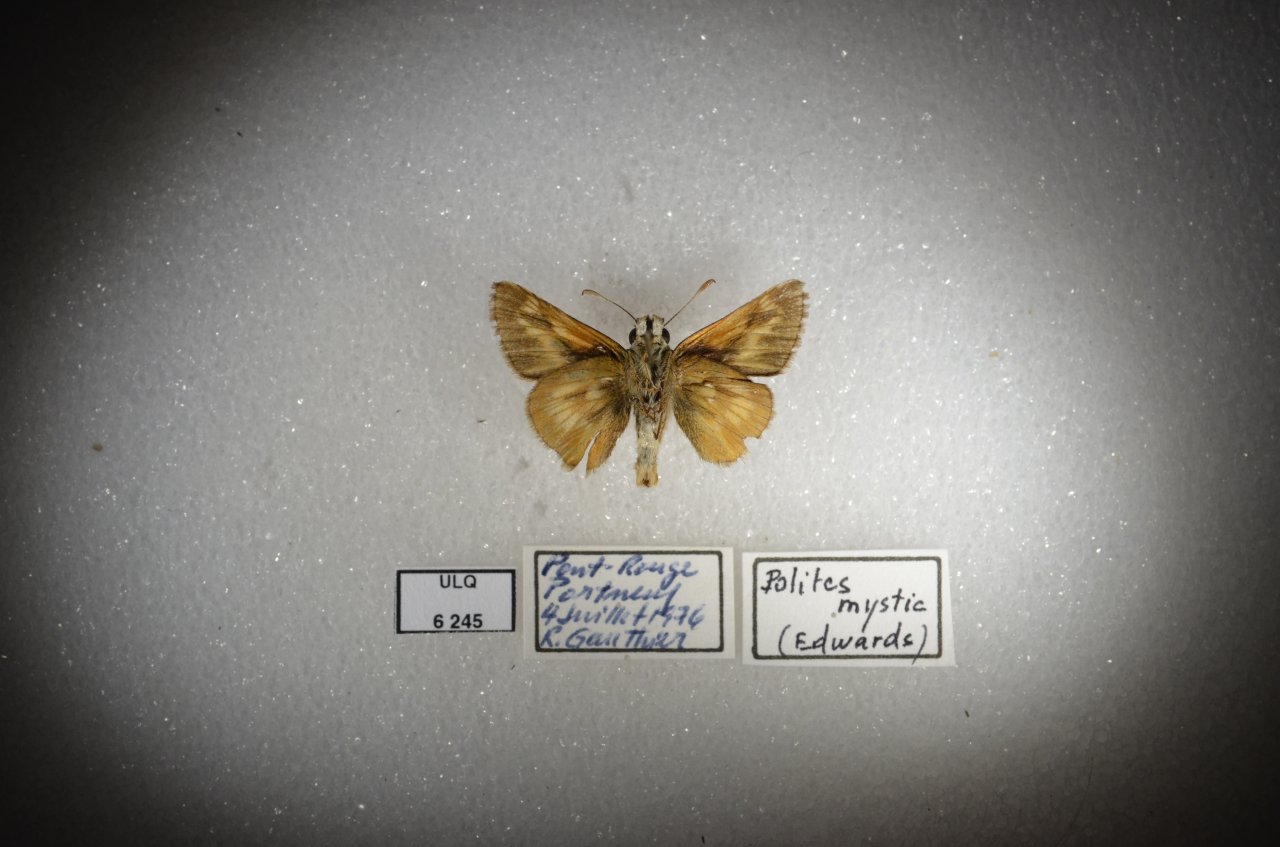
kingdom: Animalia
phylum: Arthropoda
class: Insecta
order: Lepidoptera
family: Hesperiidae
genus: Polites
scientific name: Polites
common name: Long Dash Skipper
